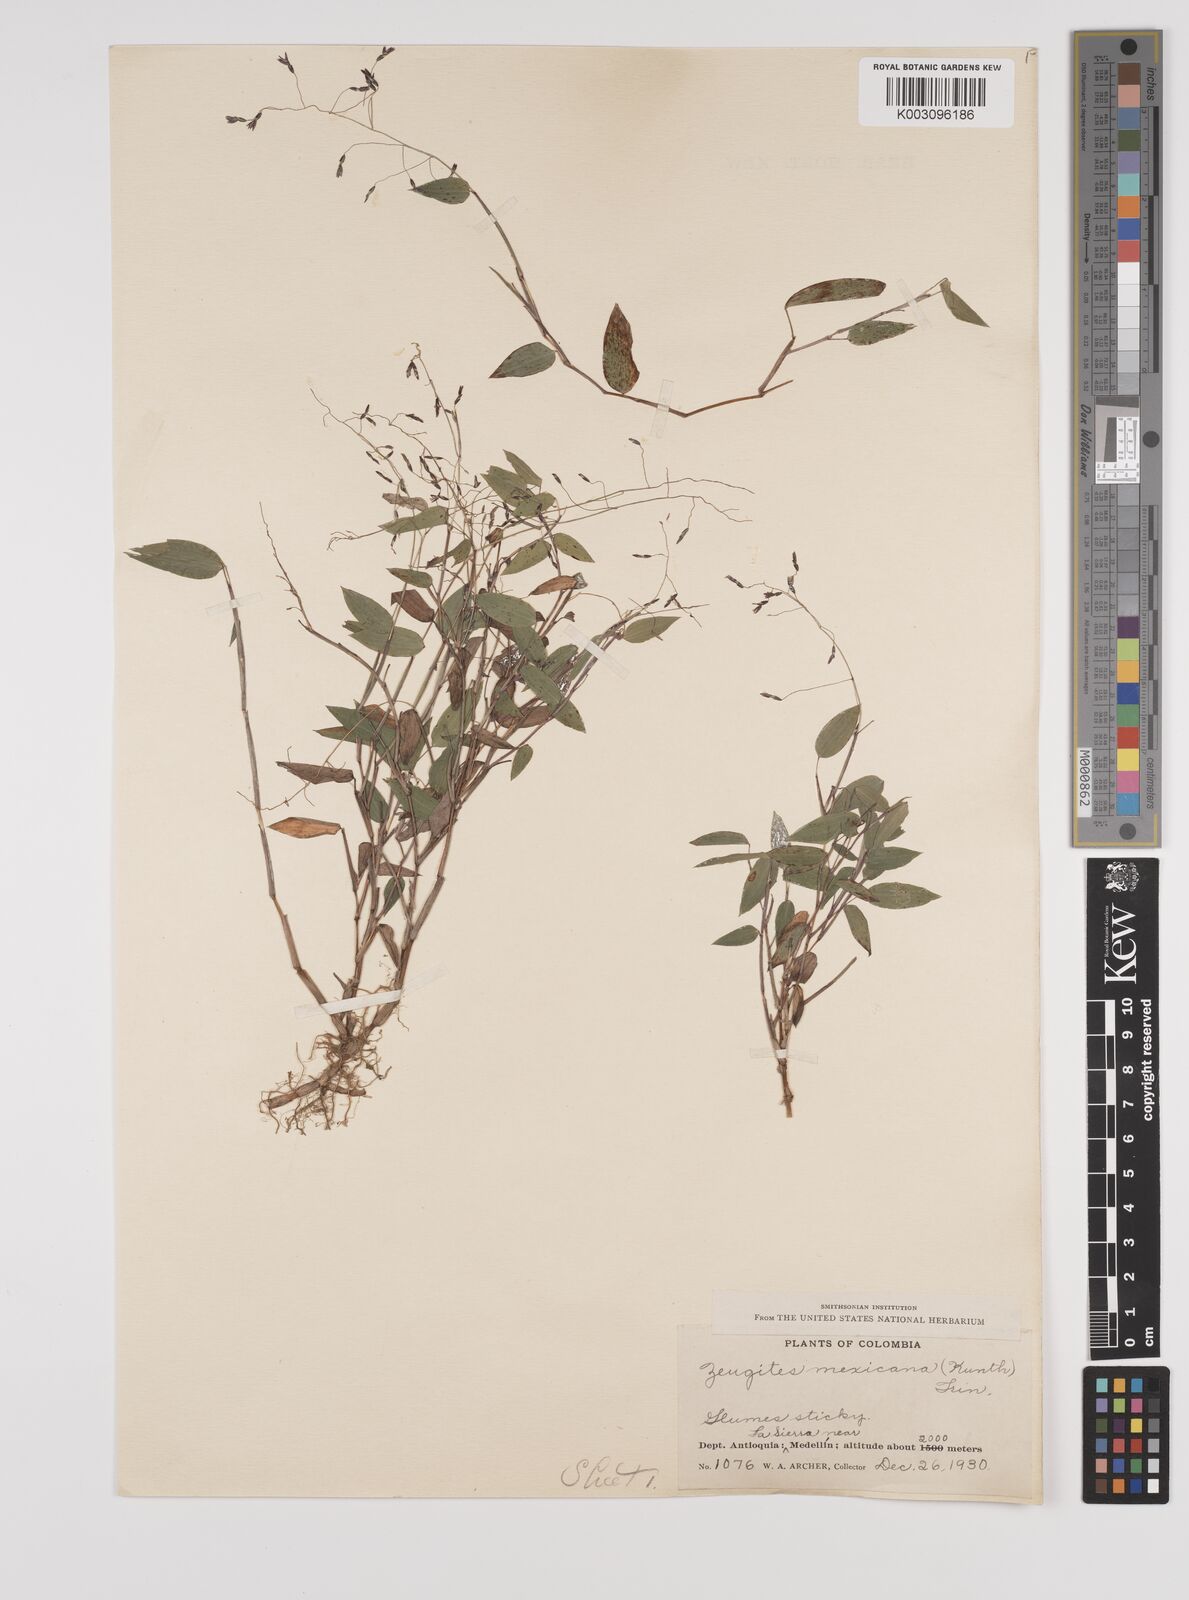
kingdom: Plantae
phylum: Tracheophyta
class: Liliopsida
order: Poales
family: Poaceae
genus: Zeugites
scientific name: Zeugites americanus
